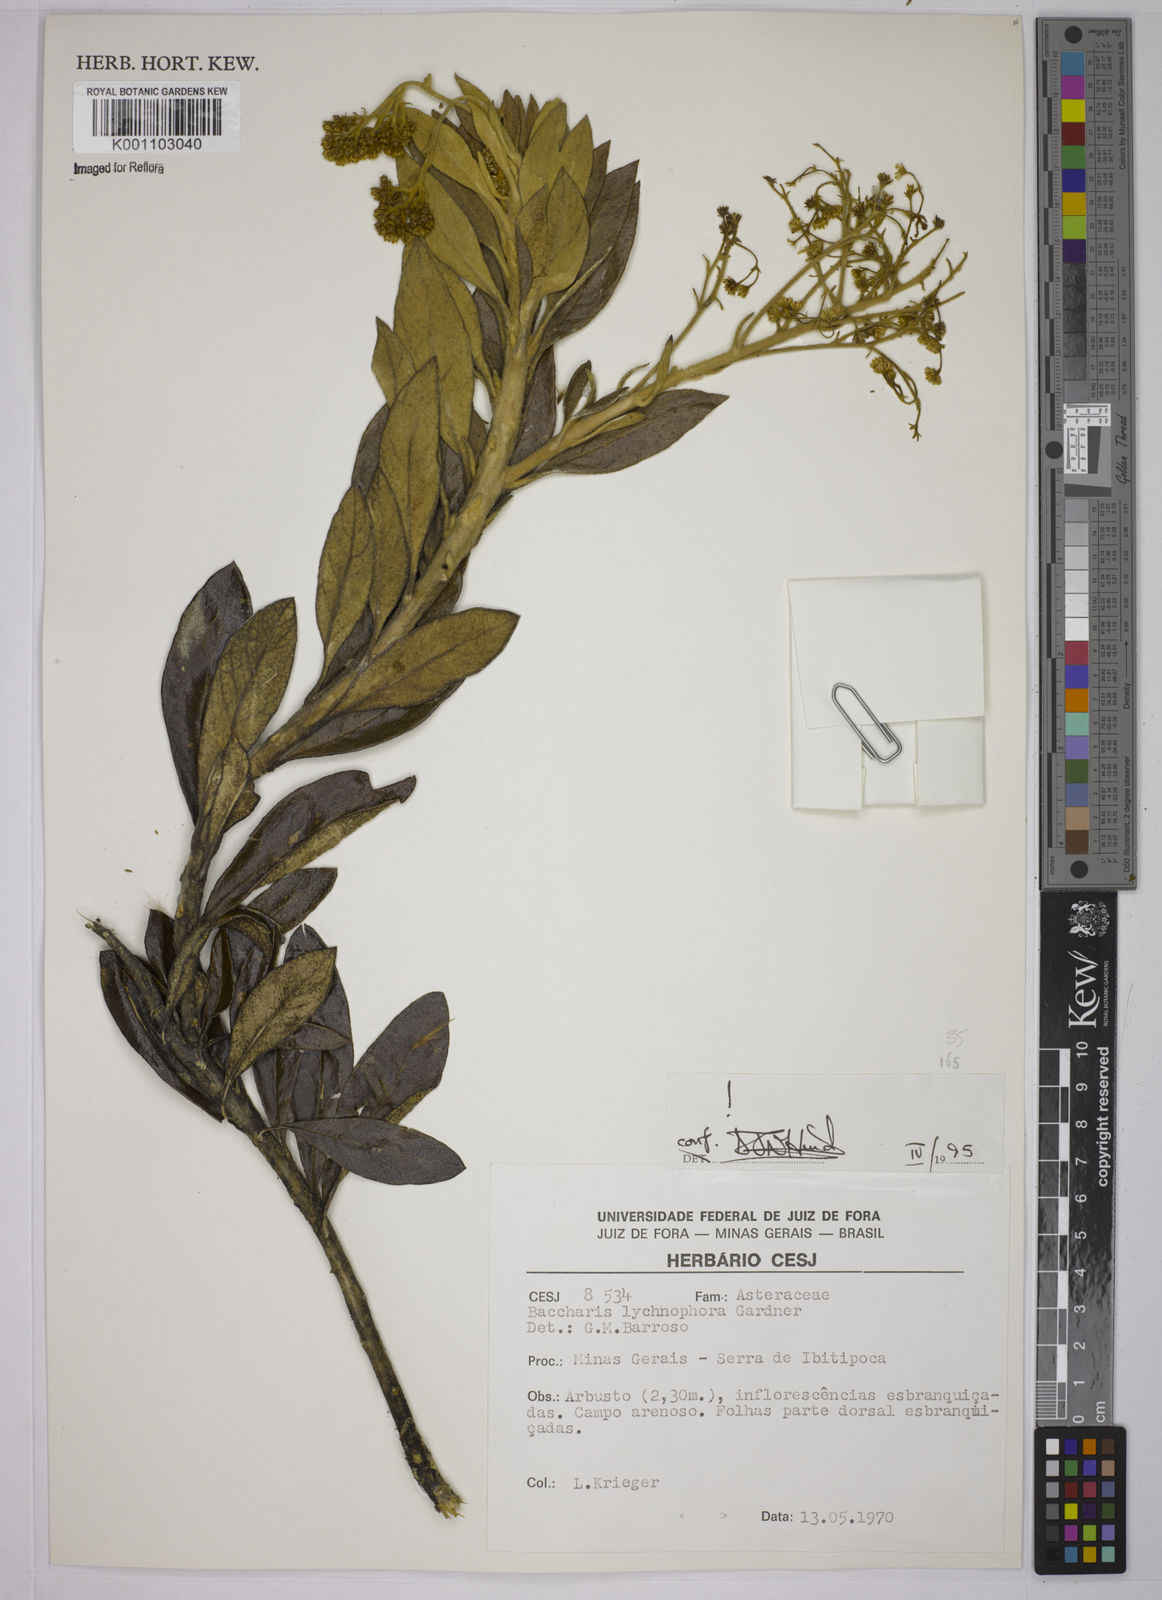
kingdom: Plantae
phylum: Tracheophyta
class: Magnoliopsida
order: Asterales
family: Asteraceae
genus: Baccharis
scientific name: Baccharis lychnophora
